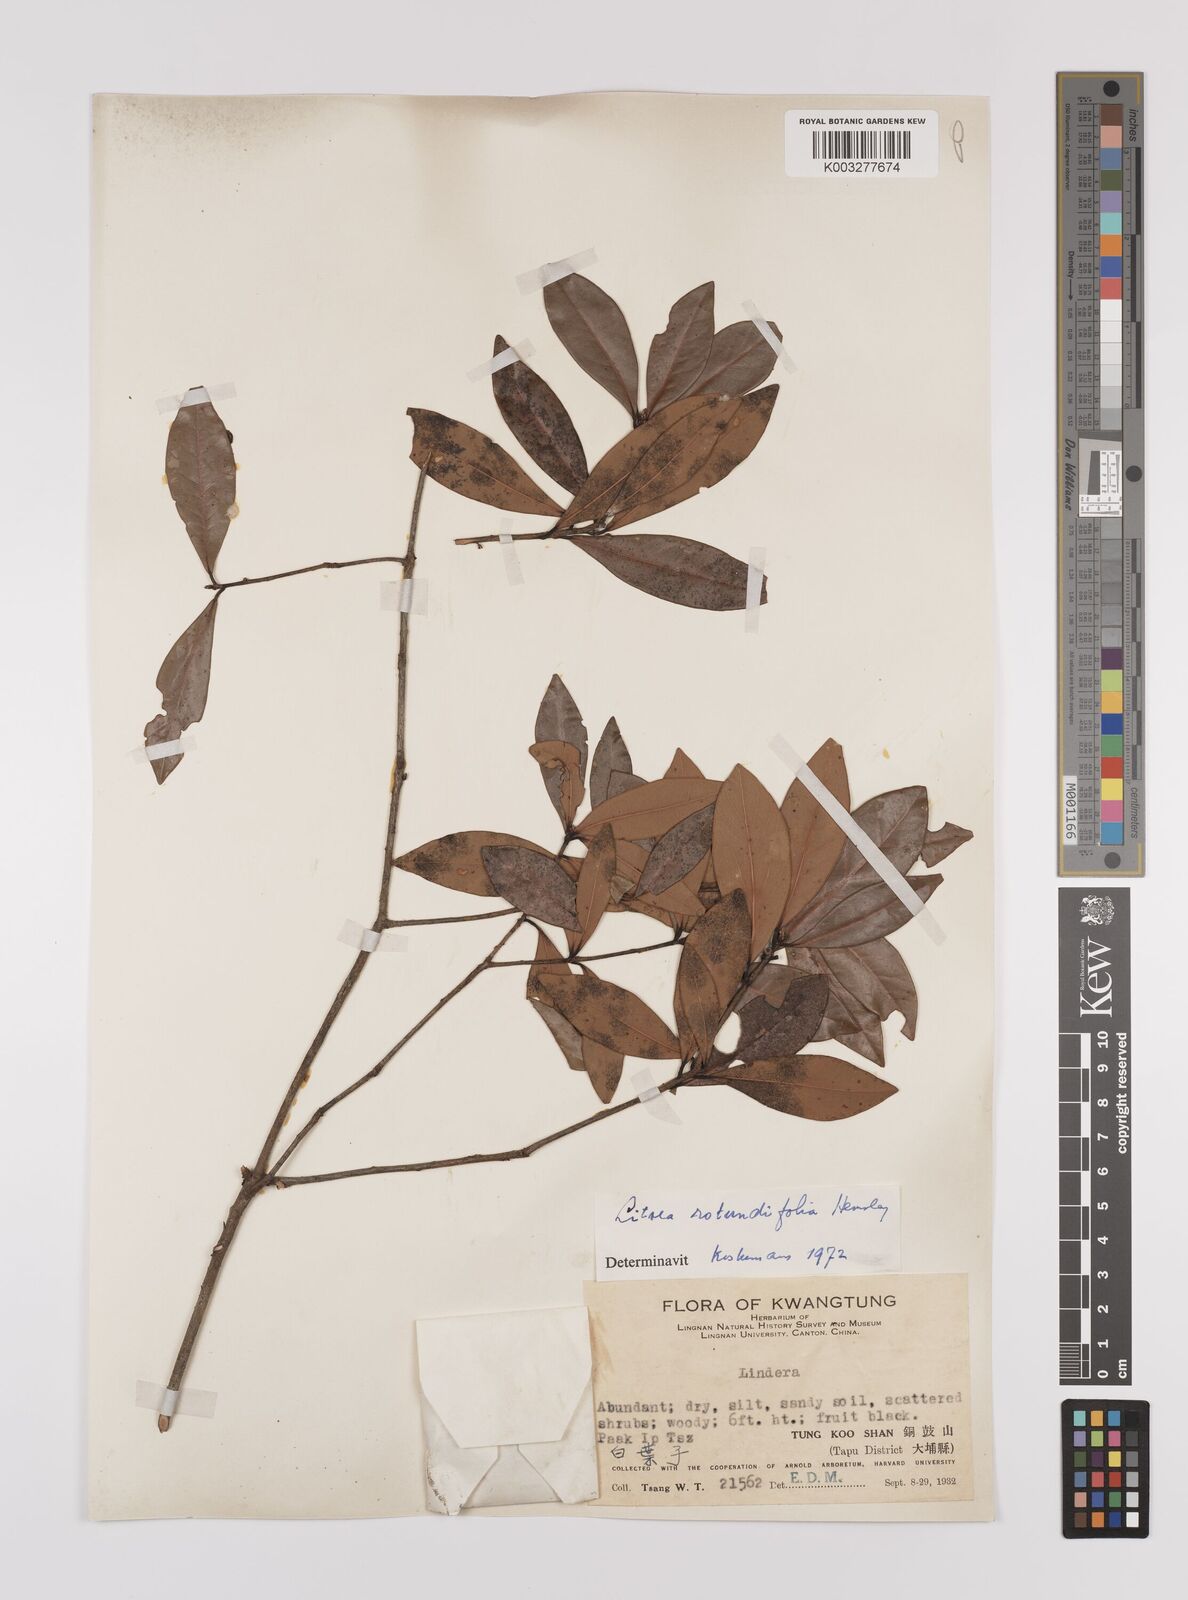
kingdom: Plantae
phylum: Tracheophyta
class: Magnoliopsida
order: Laurales
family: Lauraceae
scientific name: Lauraceae
